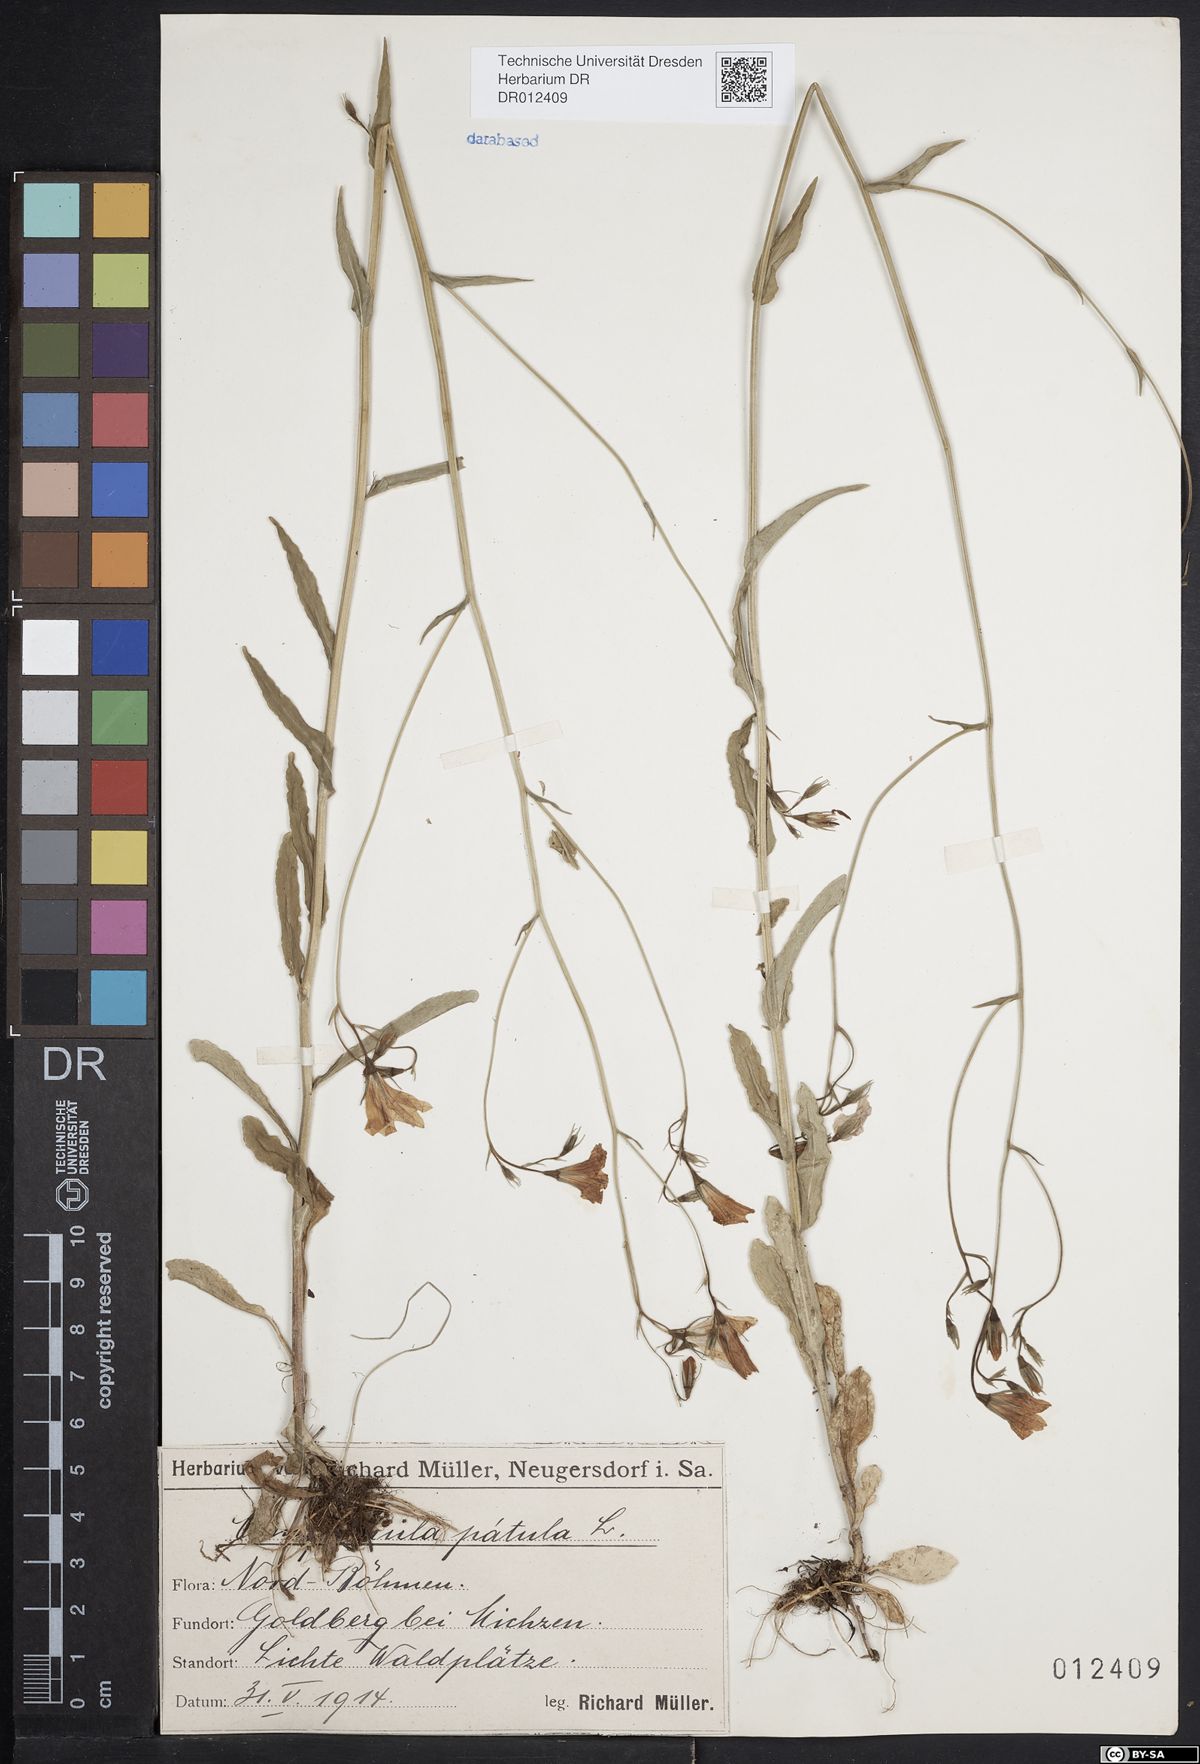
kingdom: Plantae
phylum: Tracheophyta
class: Magnoliopsida
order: Asterales
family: Campanulaceae
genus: Campanula
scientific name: Campanula patula
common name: Spreading bellflower
